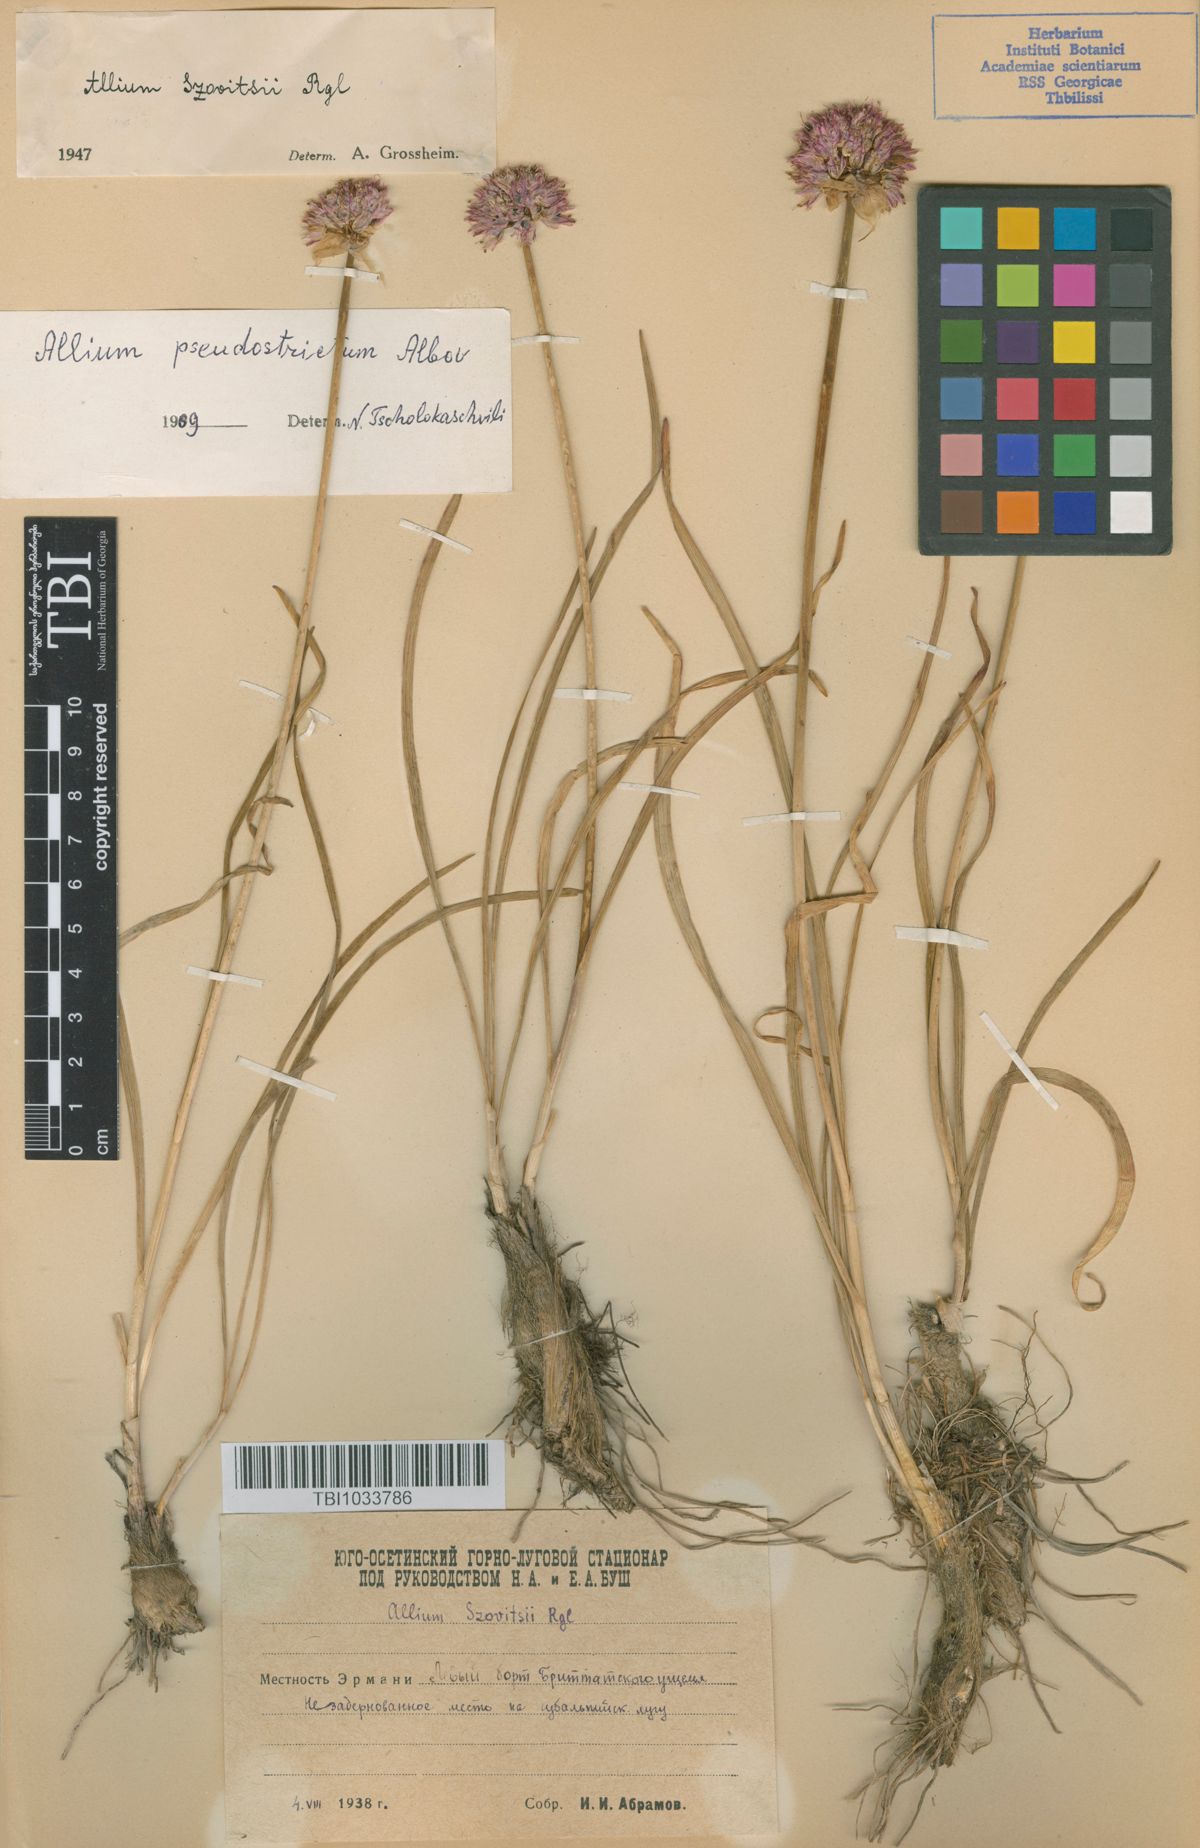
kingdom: Plantae
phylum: Tracheophyta
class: Liliopsida
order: Asparagales
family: Amaryllidaceae
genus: Allium
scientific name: Allium pseudostrictum
